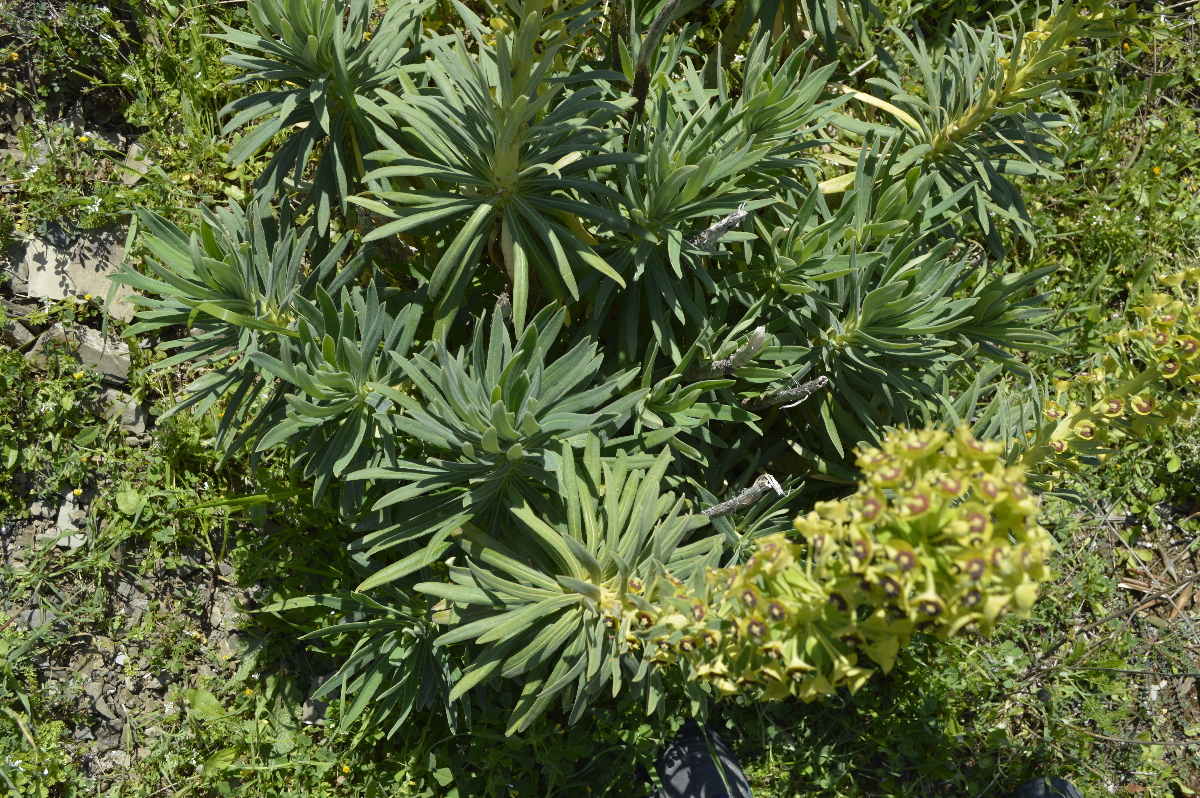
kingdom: Plantae
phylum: Tracheophyta
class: Magnoliopsida
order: Malpighiales
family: Euphorbiaceae
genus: Euphorbia
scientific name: Euphorbia characias
